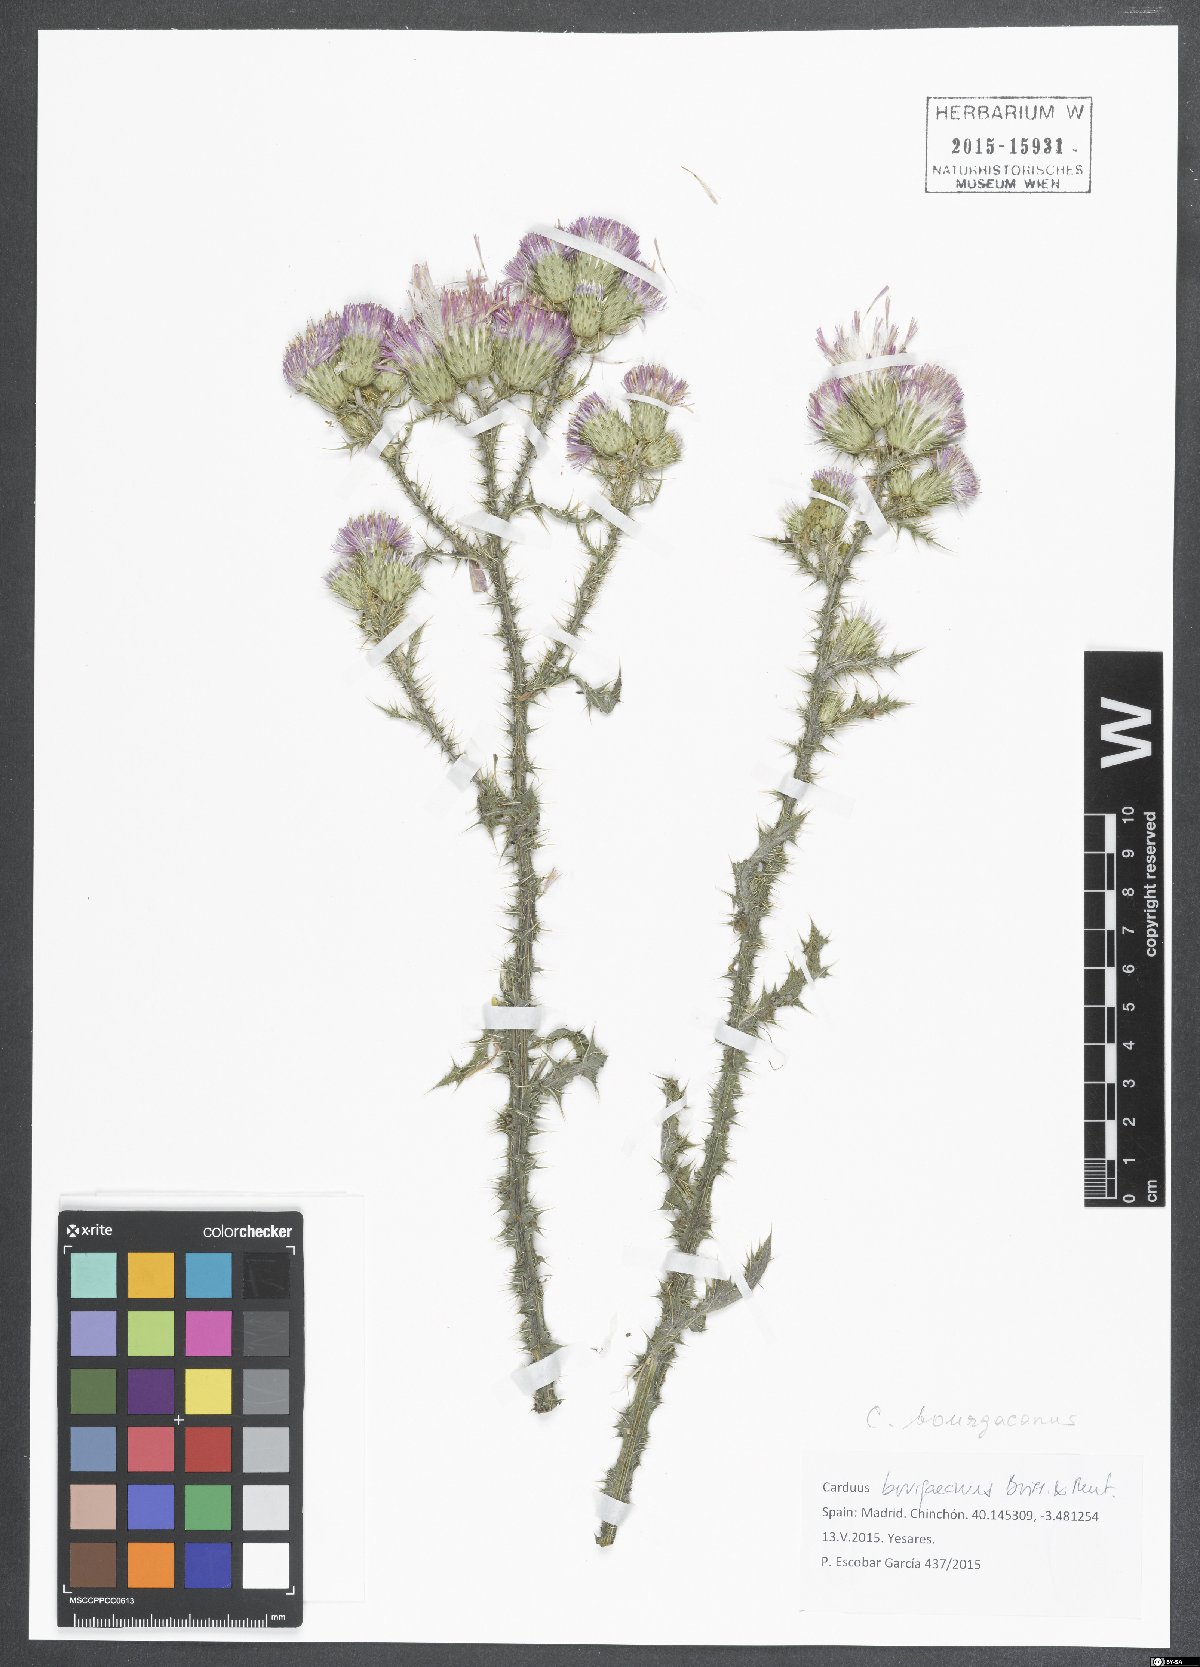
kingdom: Plantae
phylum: Tracheophyta
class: Magnoliopsida
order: Asterales
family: Asteraceae
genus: Carduus
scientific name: Carduus bourgaeanus
